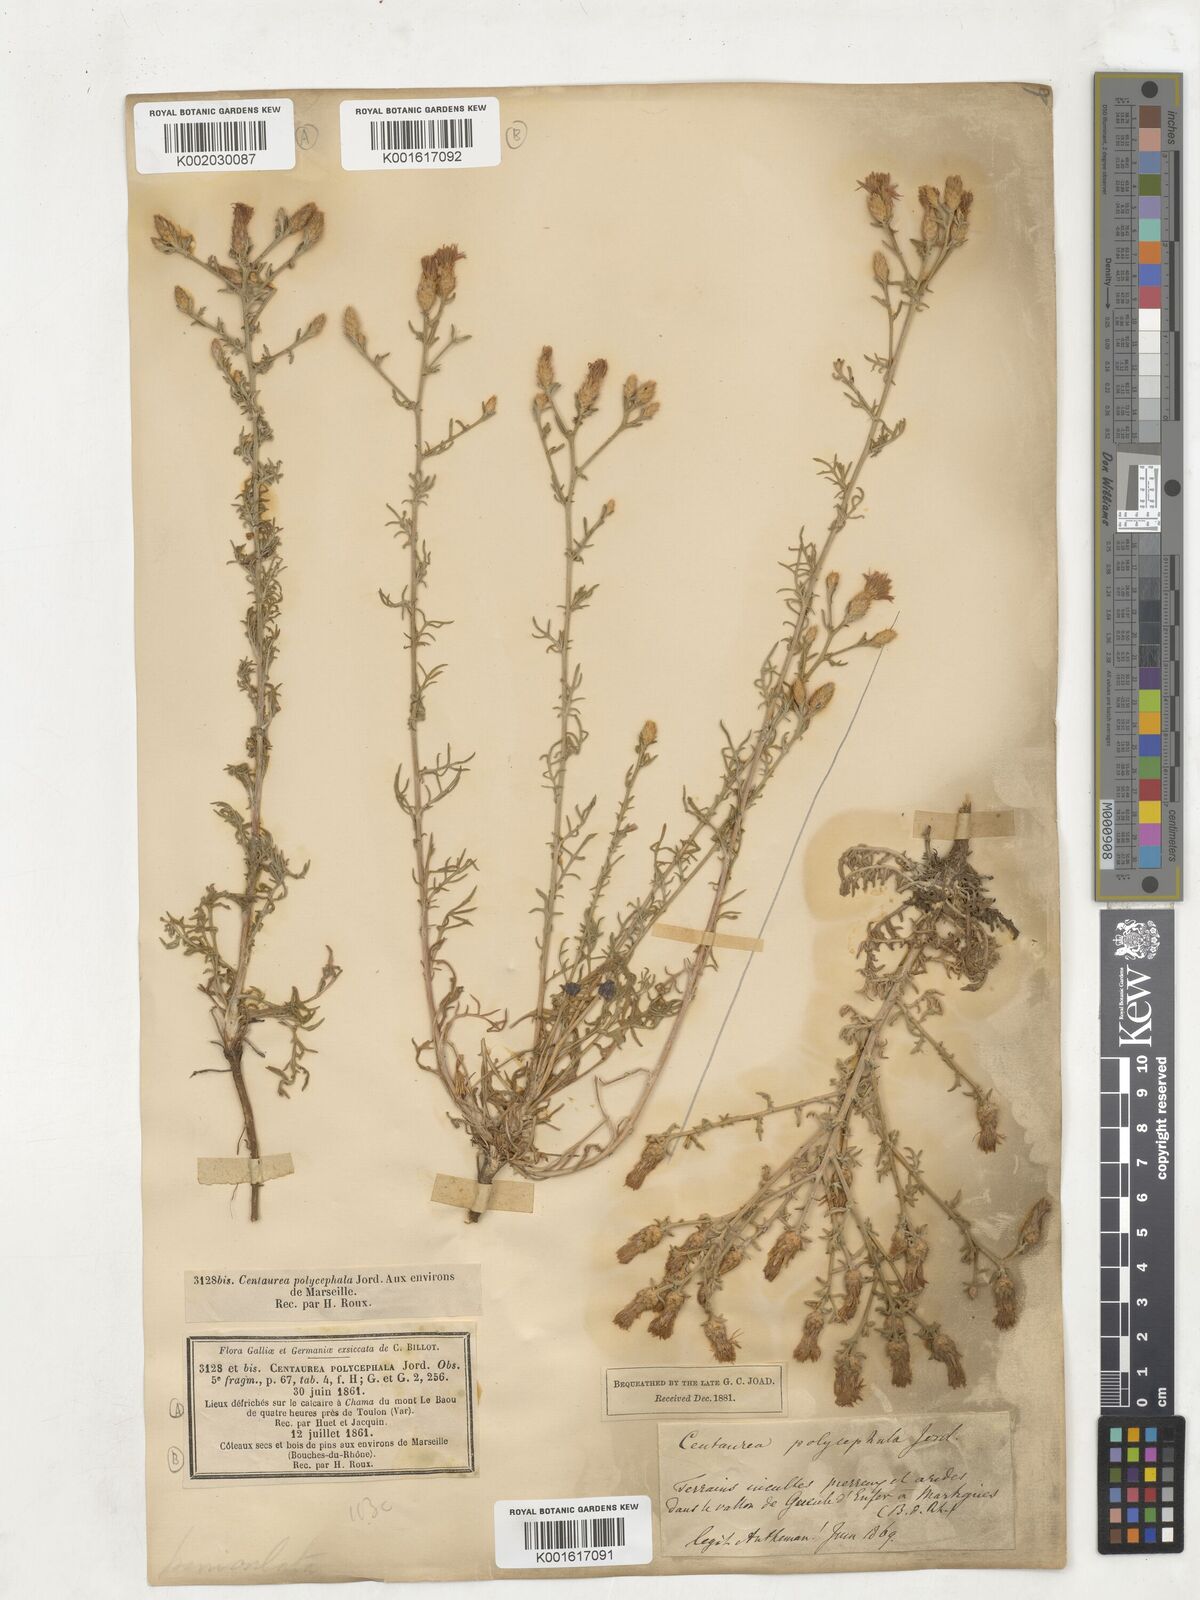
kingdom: Plantae
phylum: Tracheophyta
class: Magnoliopsida
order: Asterales
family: Asteraceae
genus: Centaurea
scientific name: Centaurea paniculata
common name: Jersey knapweed
